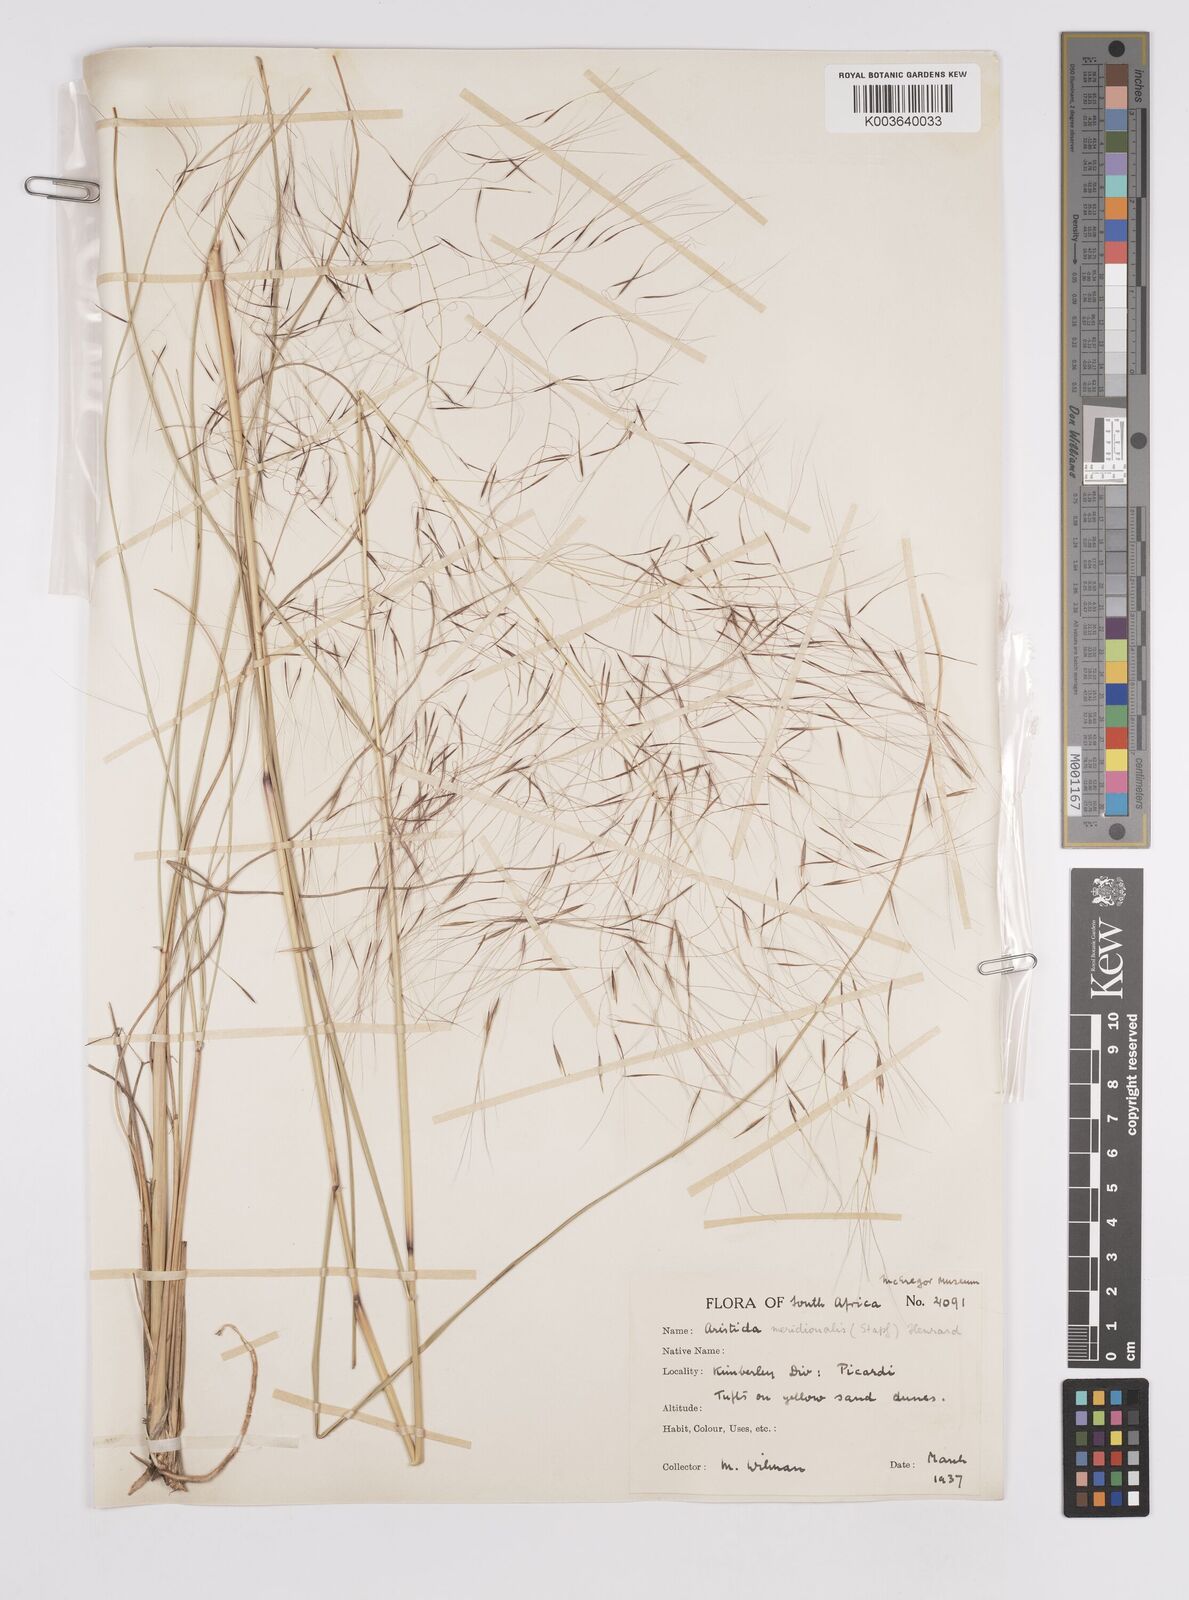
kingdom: Plantae
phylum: Tracheophyta
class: Liliopsida
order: Poales
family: Poaceae
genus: Aristida
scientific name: Aristida meridionalis
